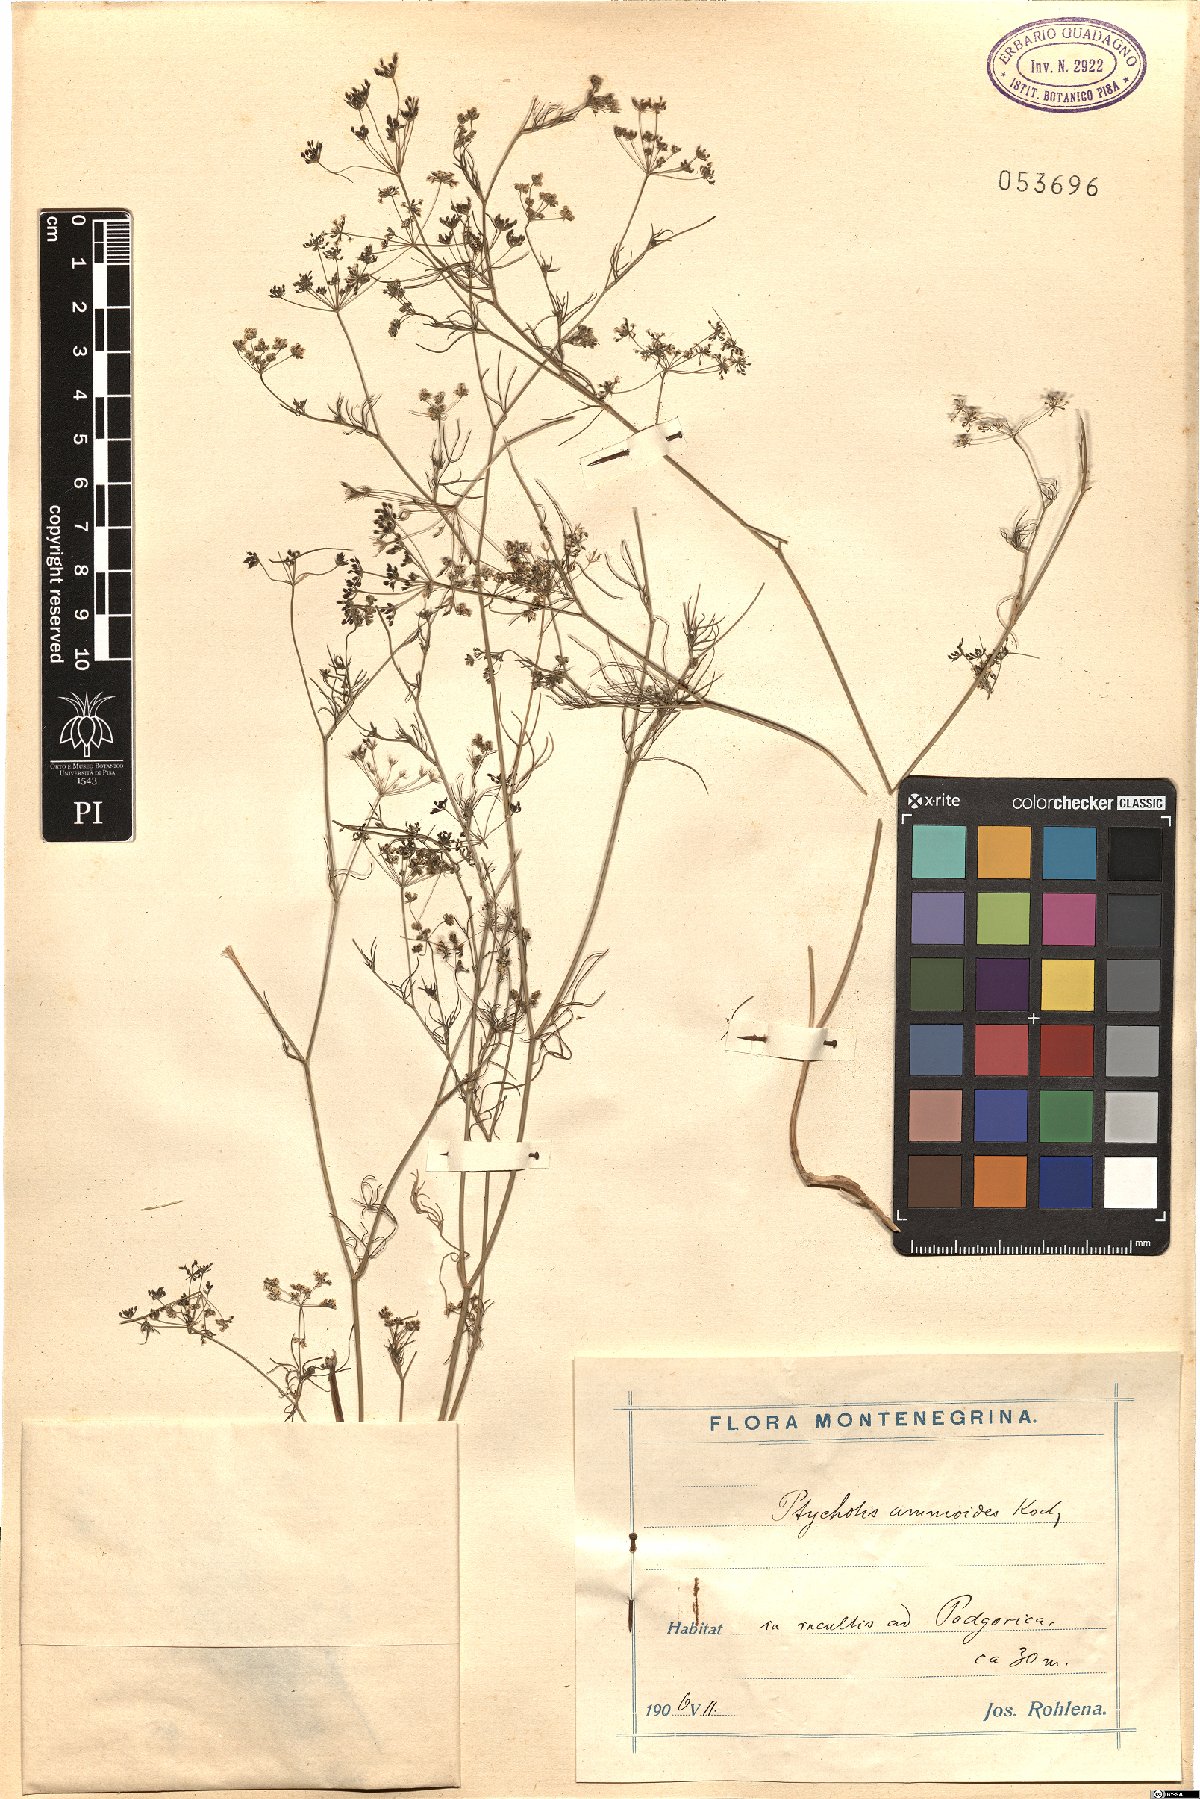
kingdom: Plantae
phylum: Tracheophyta
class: Magnoliopsida
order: Apiales
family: Apiaceae
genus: Ammoides
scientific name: Ammoides pusilla
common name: Cerfolium
